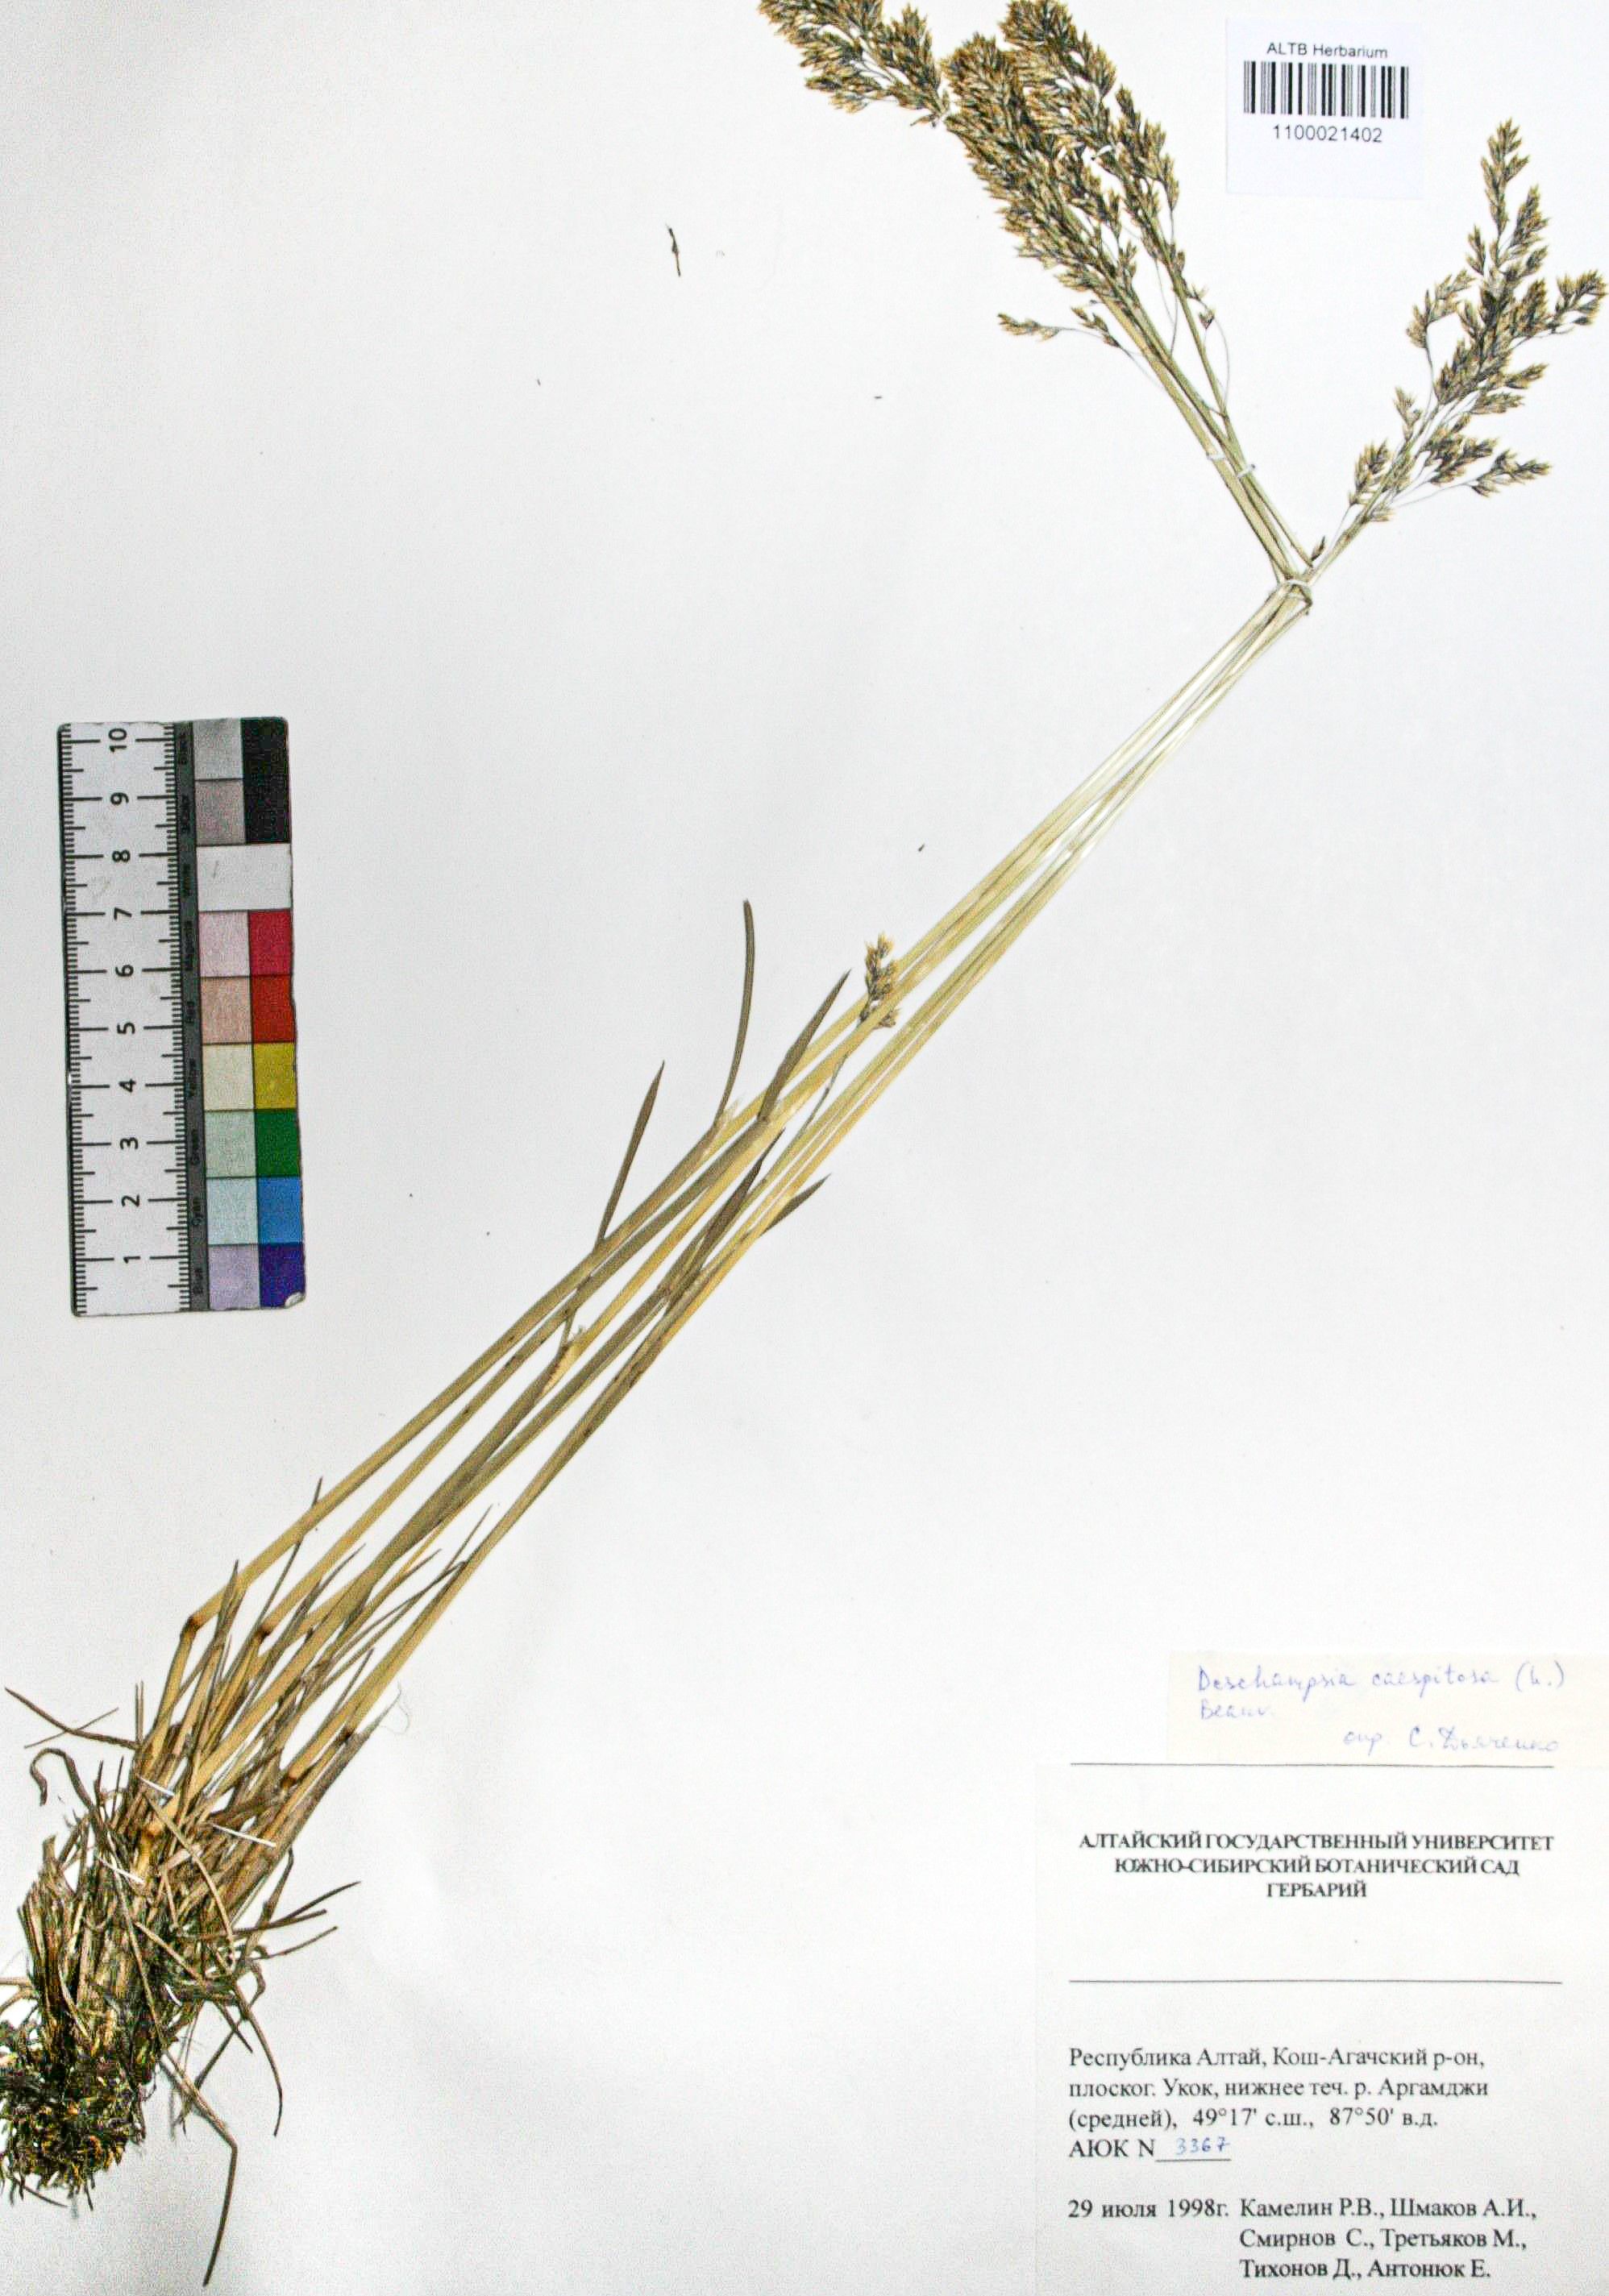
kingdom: Plantae
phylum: Tracheophyta
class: Liliopsida
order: Poales
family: Poaceae
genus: Deschampsia
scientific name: Deschampsia cespitosa
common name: Tufted hair-grass
